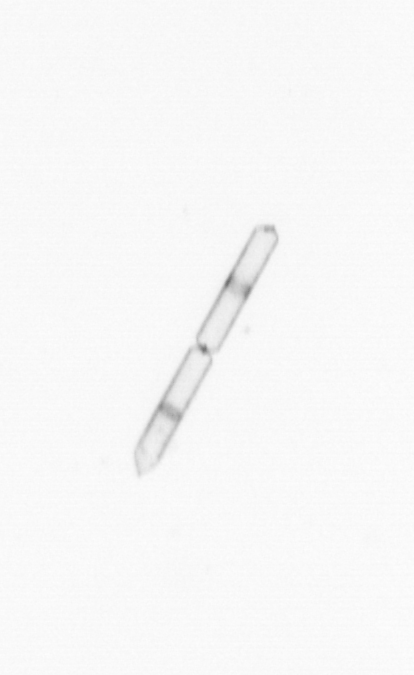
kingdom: Chromista
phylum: Ochrophyta
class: Bacillariophyceae
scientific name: Bacillariophyceae
